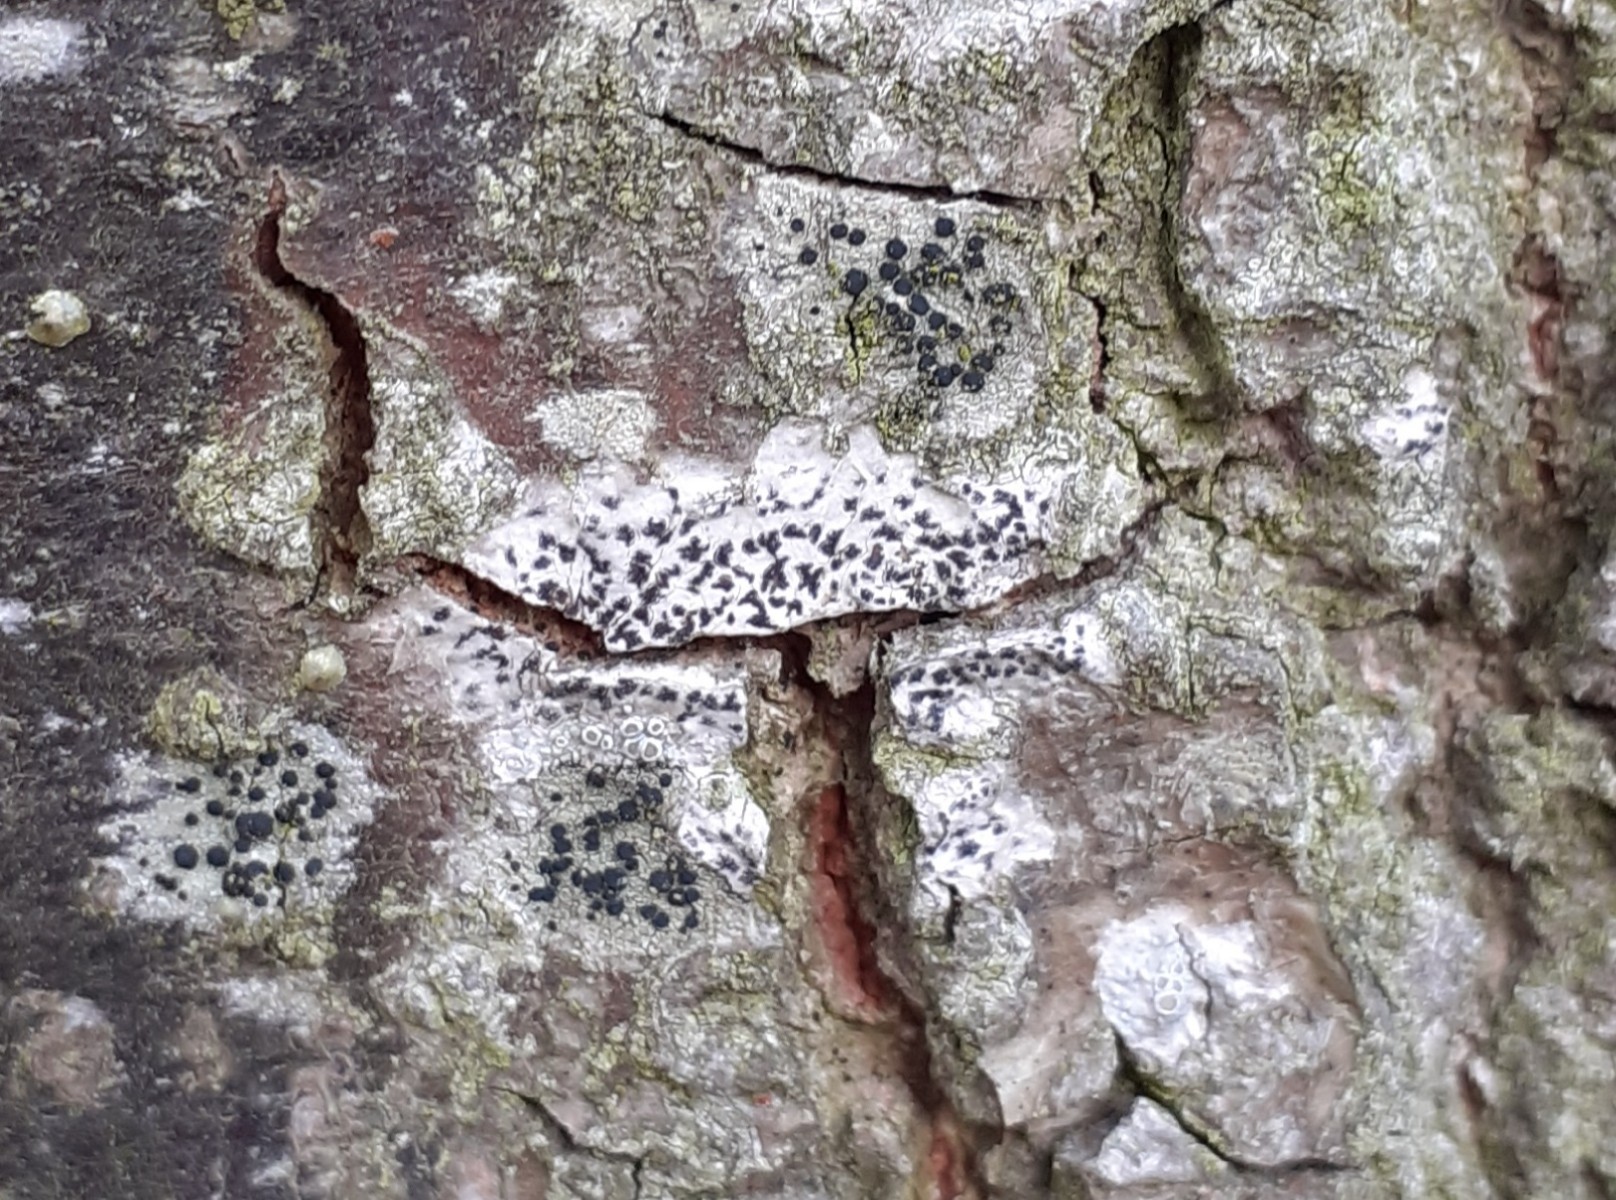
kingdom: Fungi
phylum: Ascomycota
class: Arthoniomycetes
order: Arthoniales
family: Arthoniaceae
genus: Arthonia
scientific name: Arthonia radiata
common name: stjerne-pletlav
